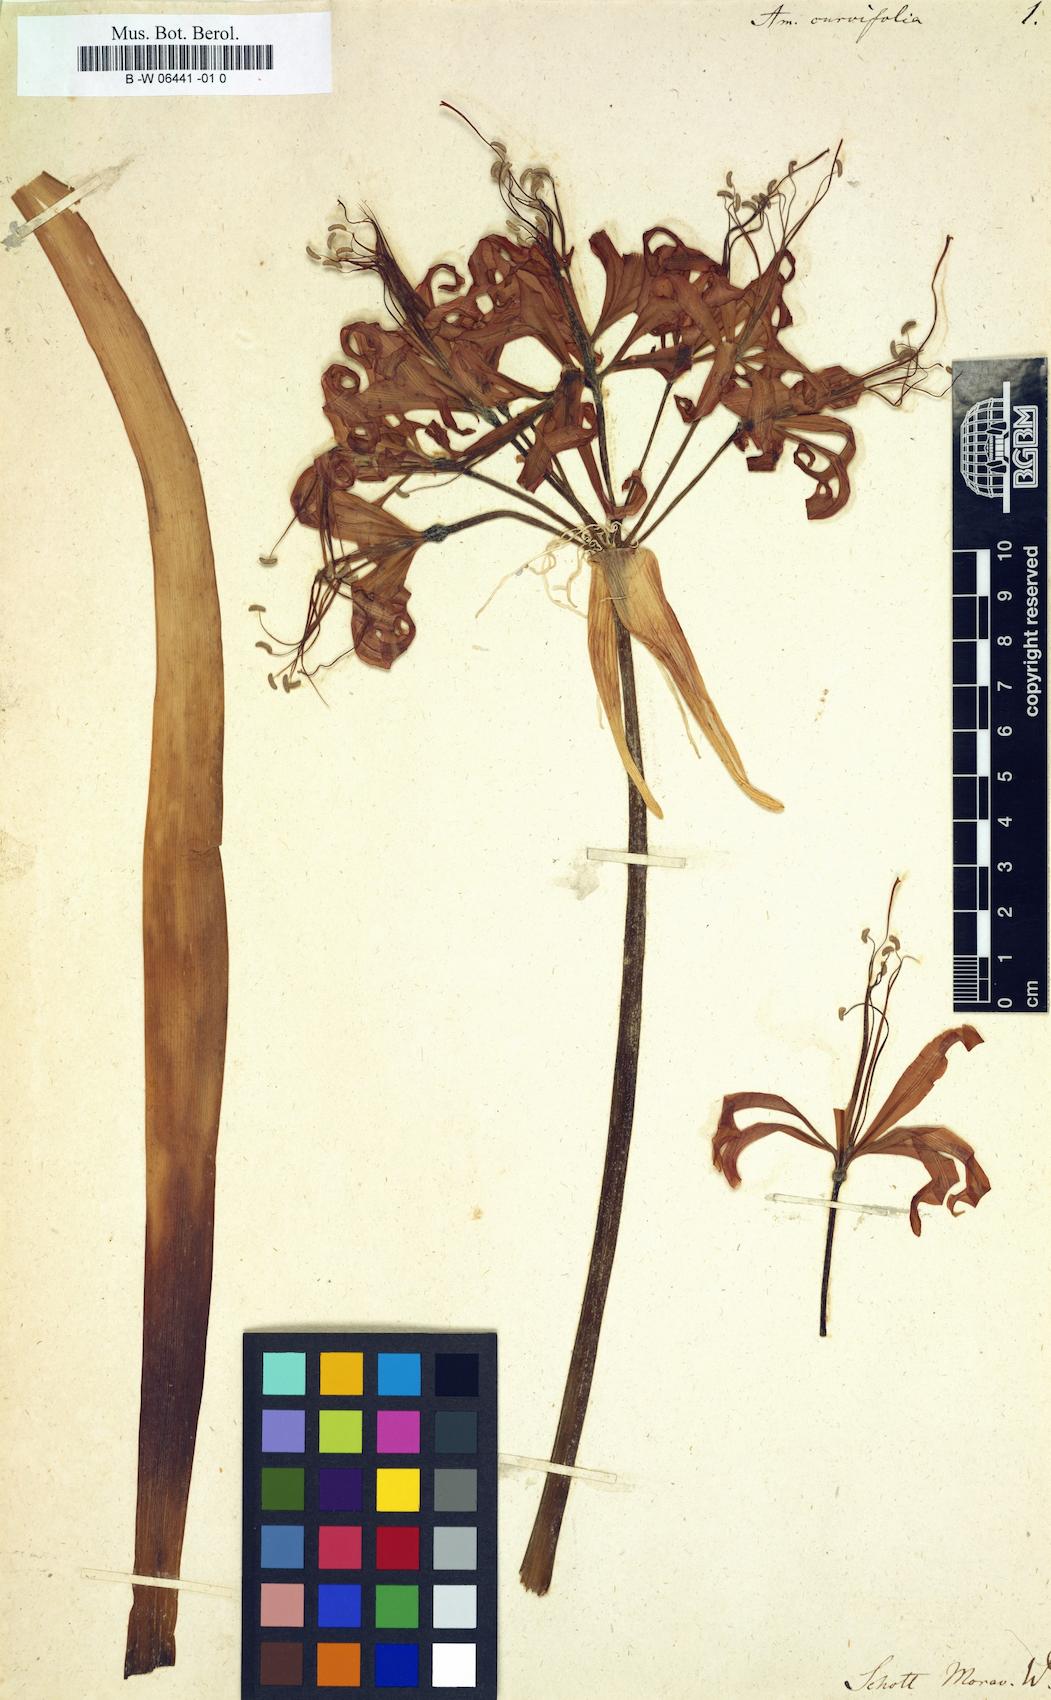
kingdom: Plantae
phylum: Tracheophyta
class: Liliopsida
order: Asparagales
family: Amaryllidaceae
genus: Nerine
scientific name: Nerine sarniensis
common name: Guernsey-lily
